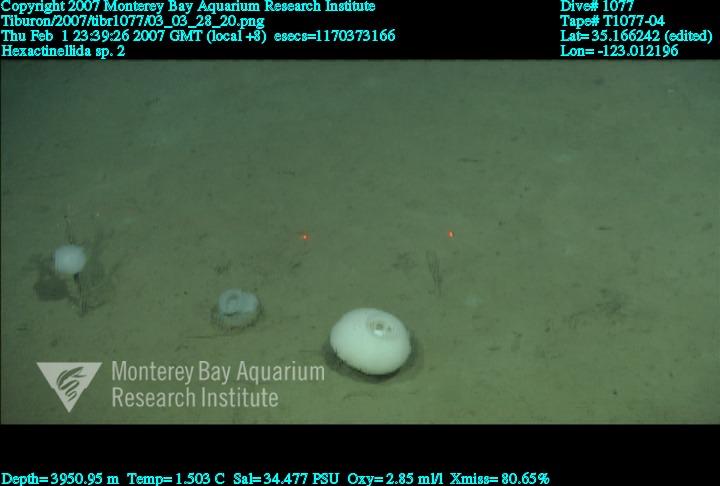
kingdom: Animalia
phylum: Porifera
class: Hexactinellida
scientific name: Hexactinellida
